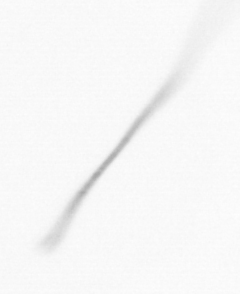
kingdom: Chromista
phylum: Ochrophyta
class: Bacillariophyceae
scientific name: Bacillariophyceae
